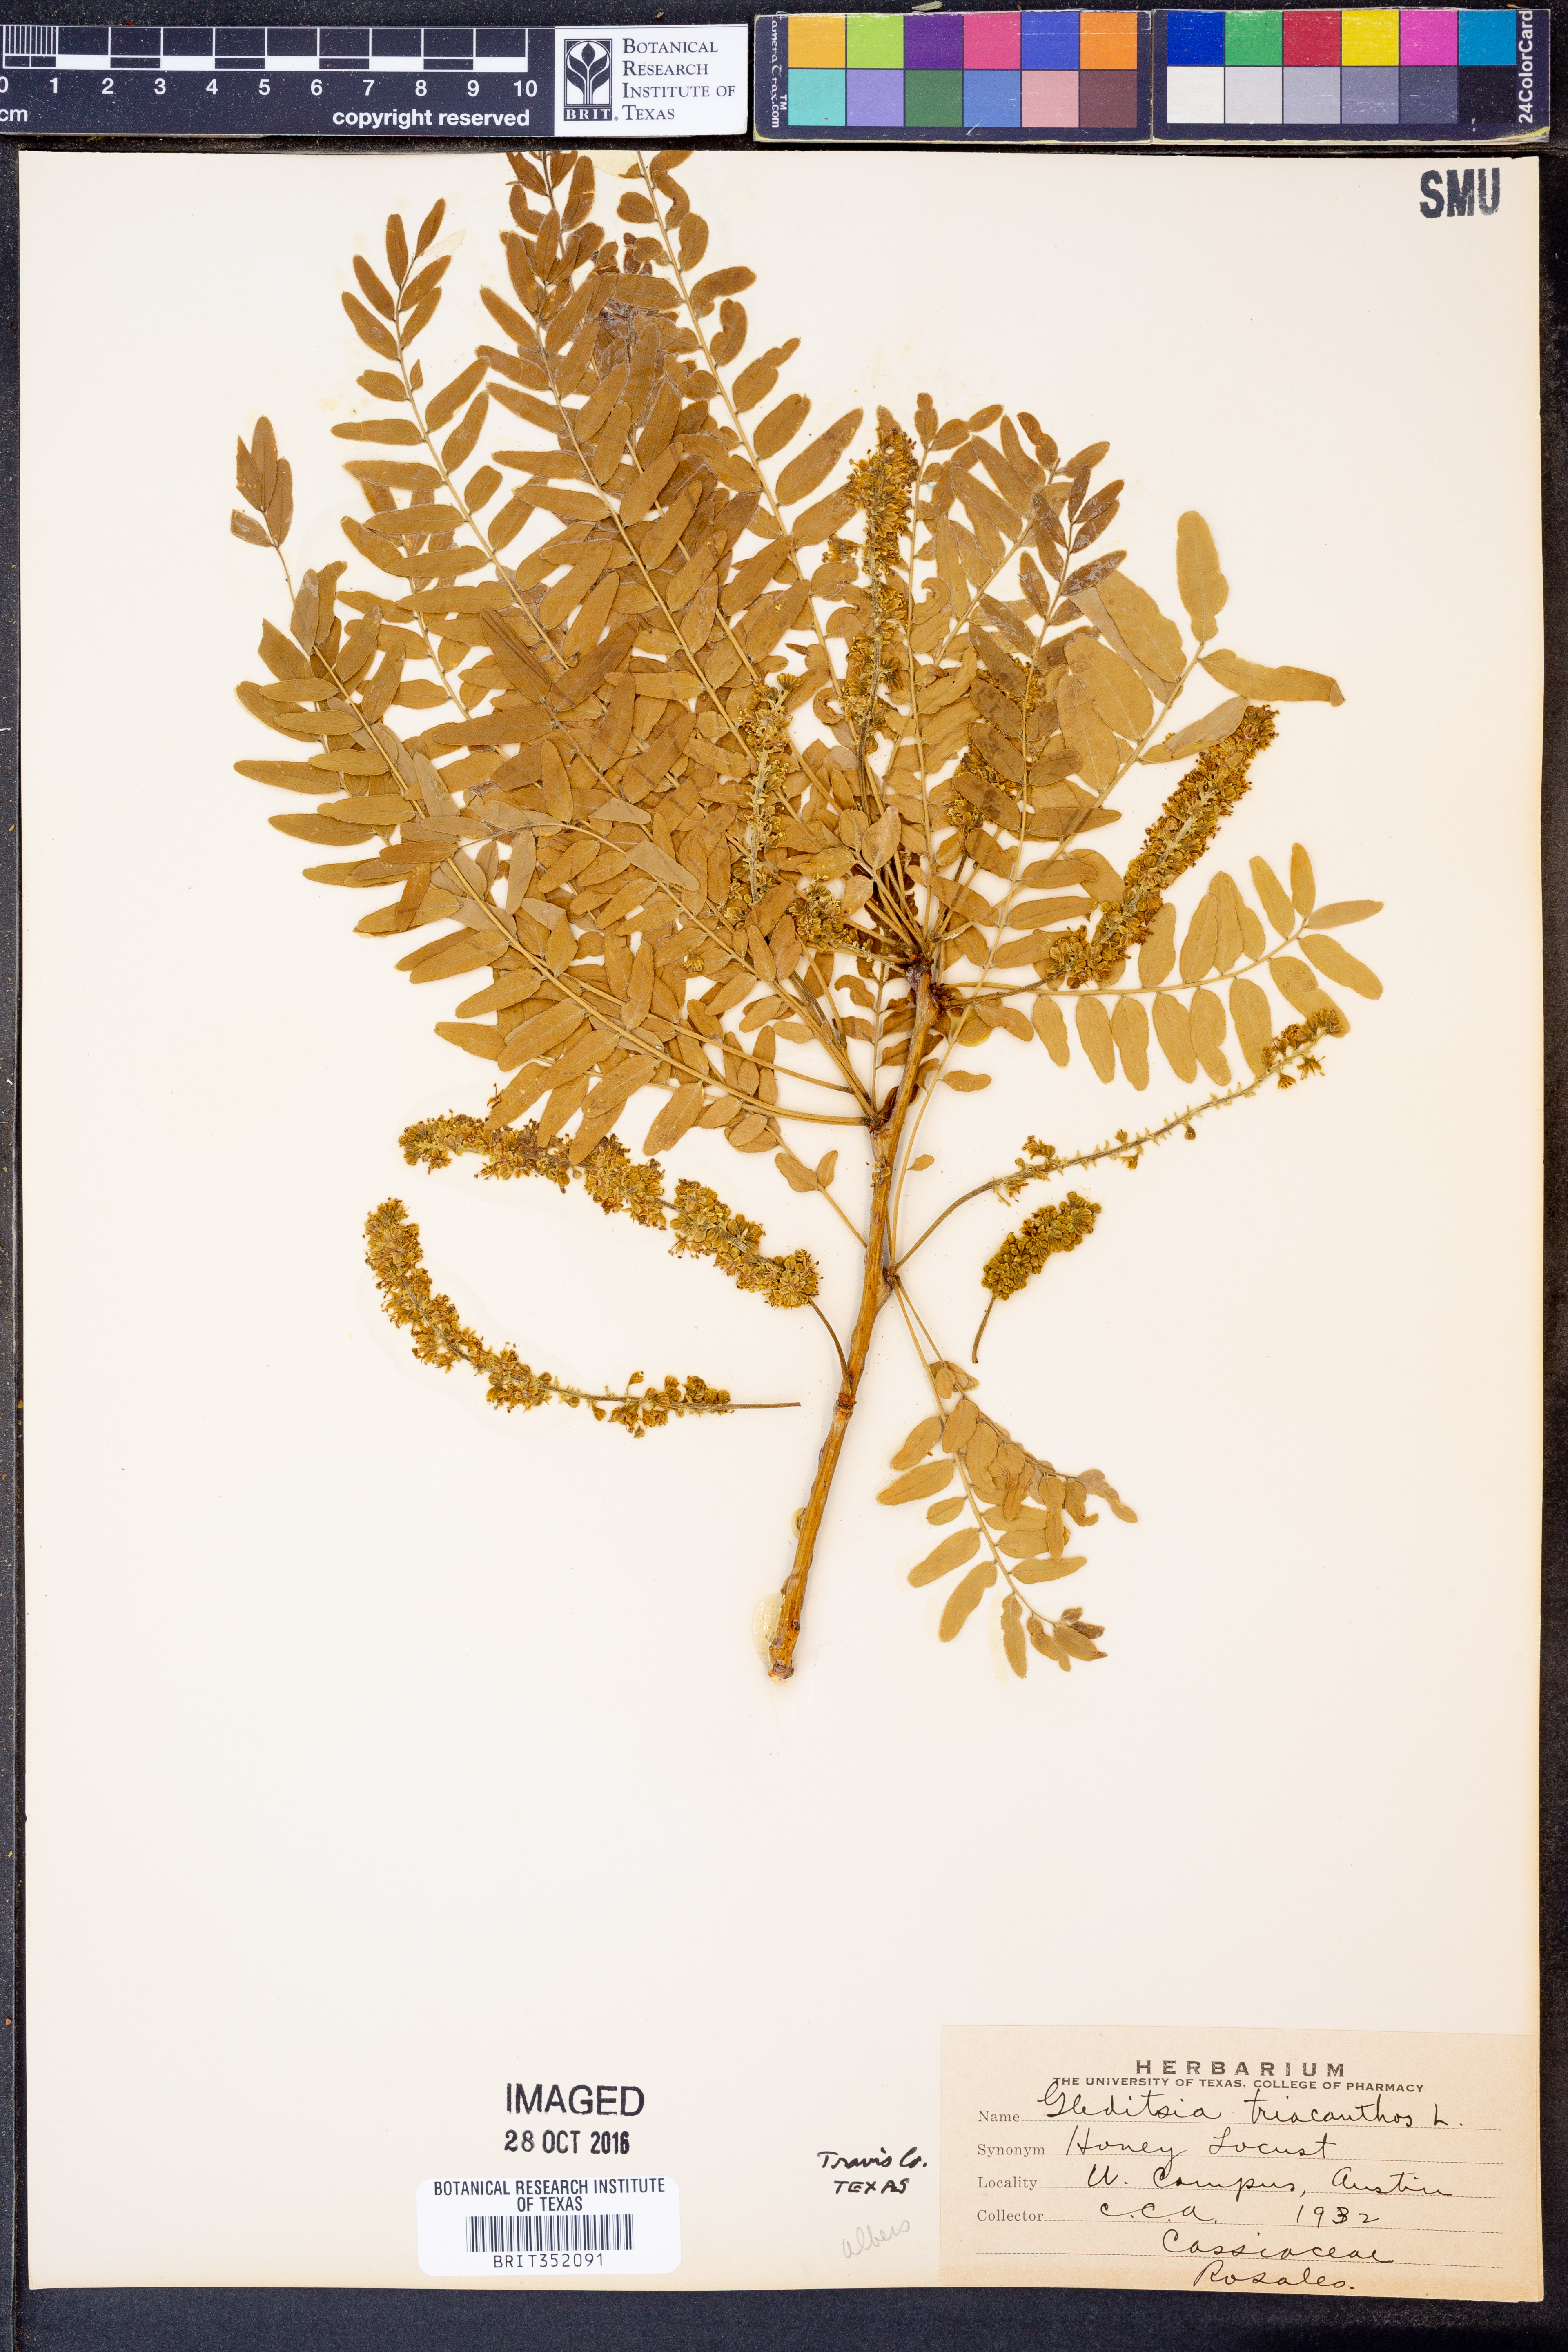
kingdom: Plantae
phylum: Tracheophyta
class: Magnoliopsida
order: Fabales
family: Fabaceae
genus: Gleditsia
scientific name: Gleditsia triacanthos
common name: Common honeylocust
